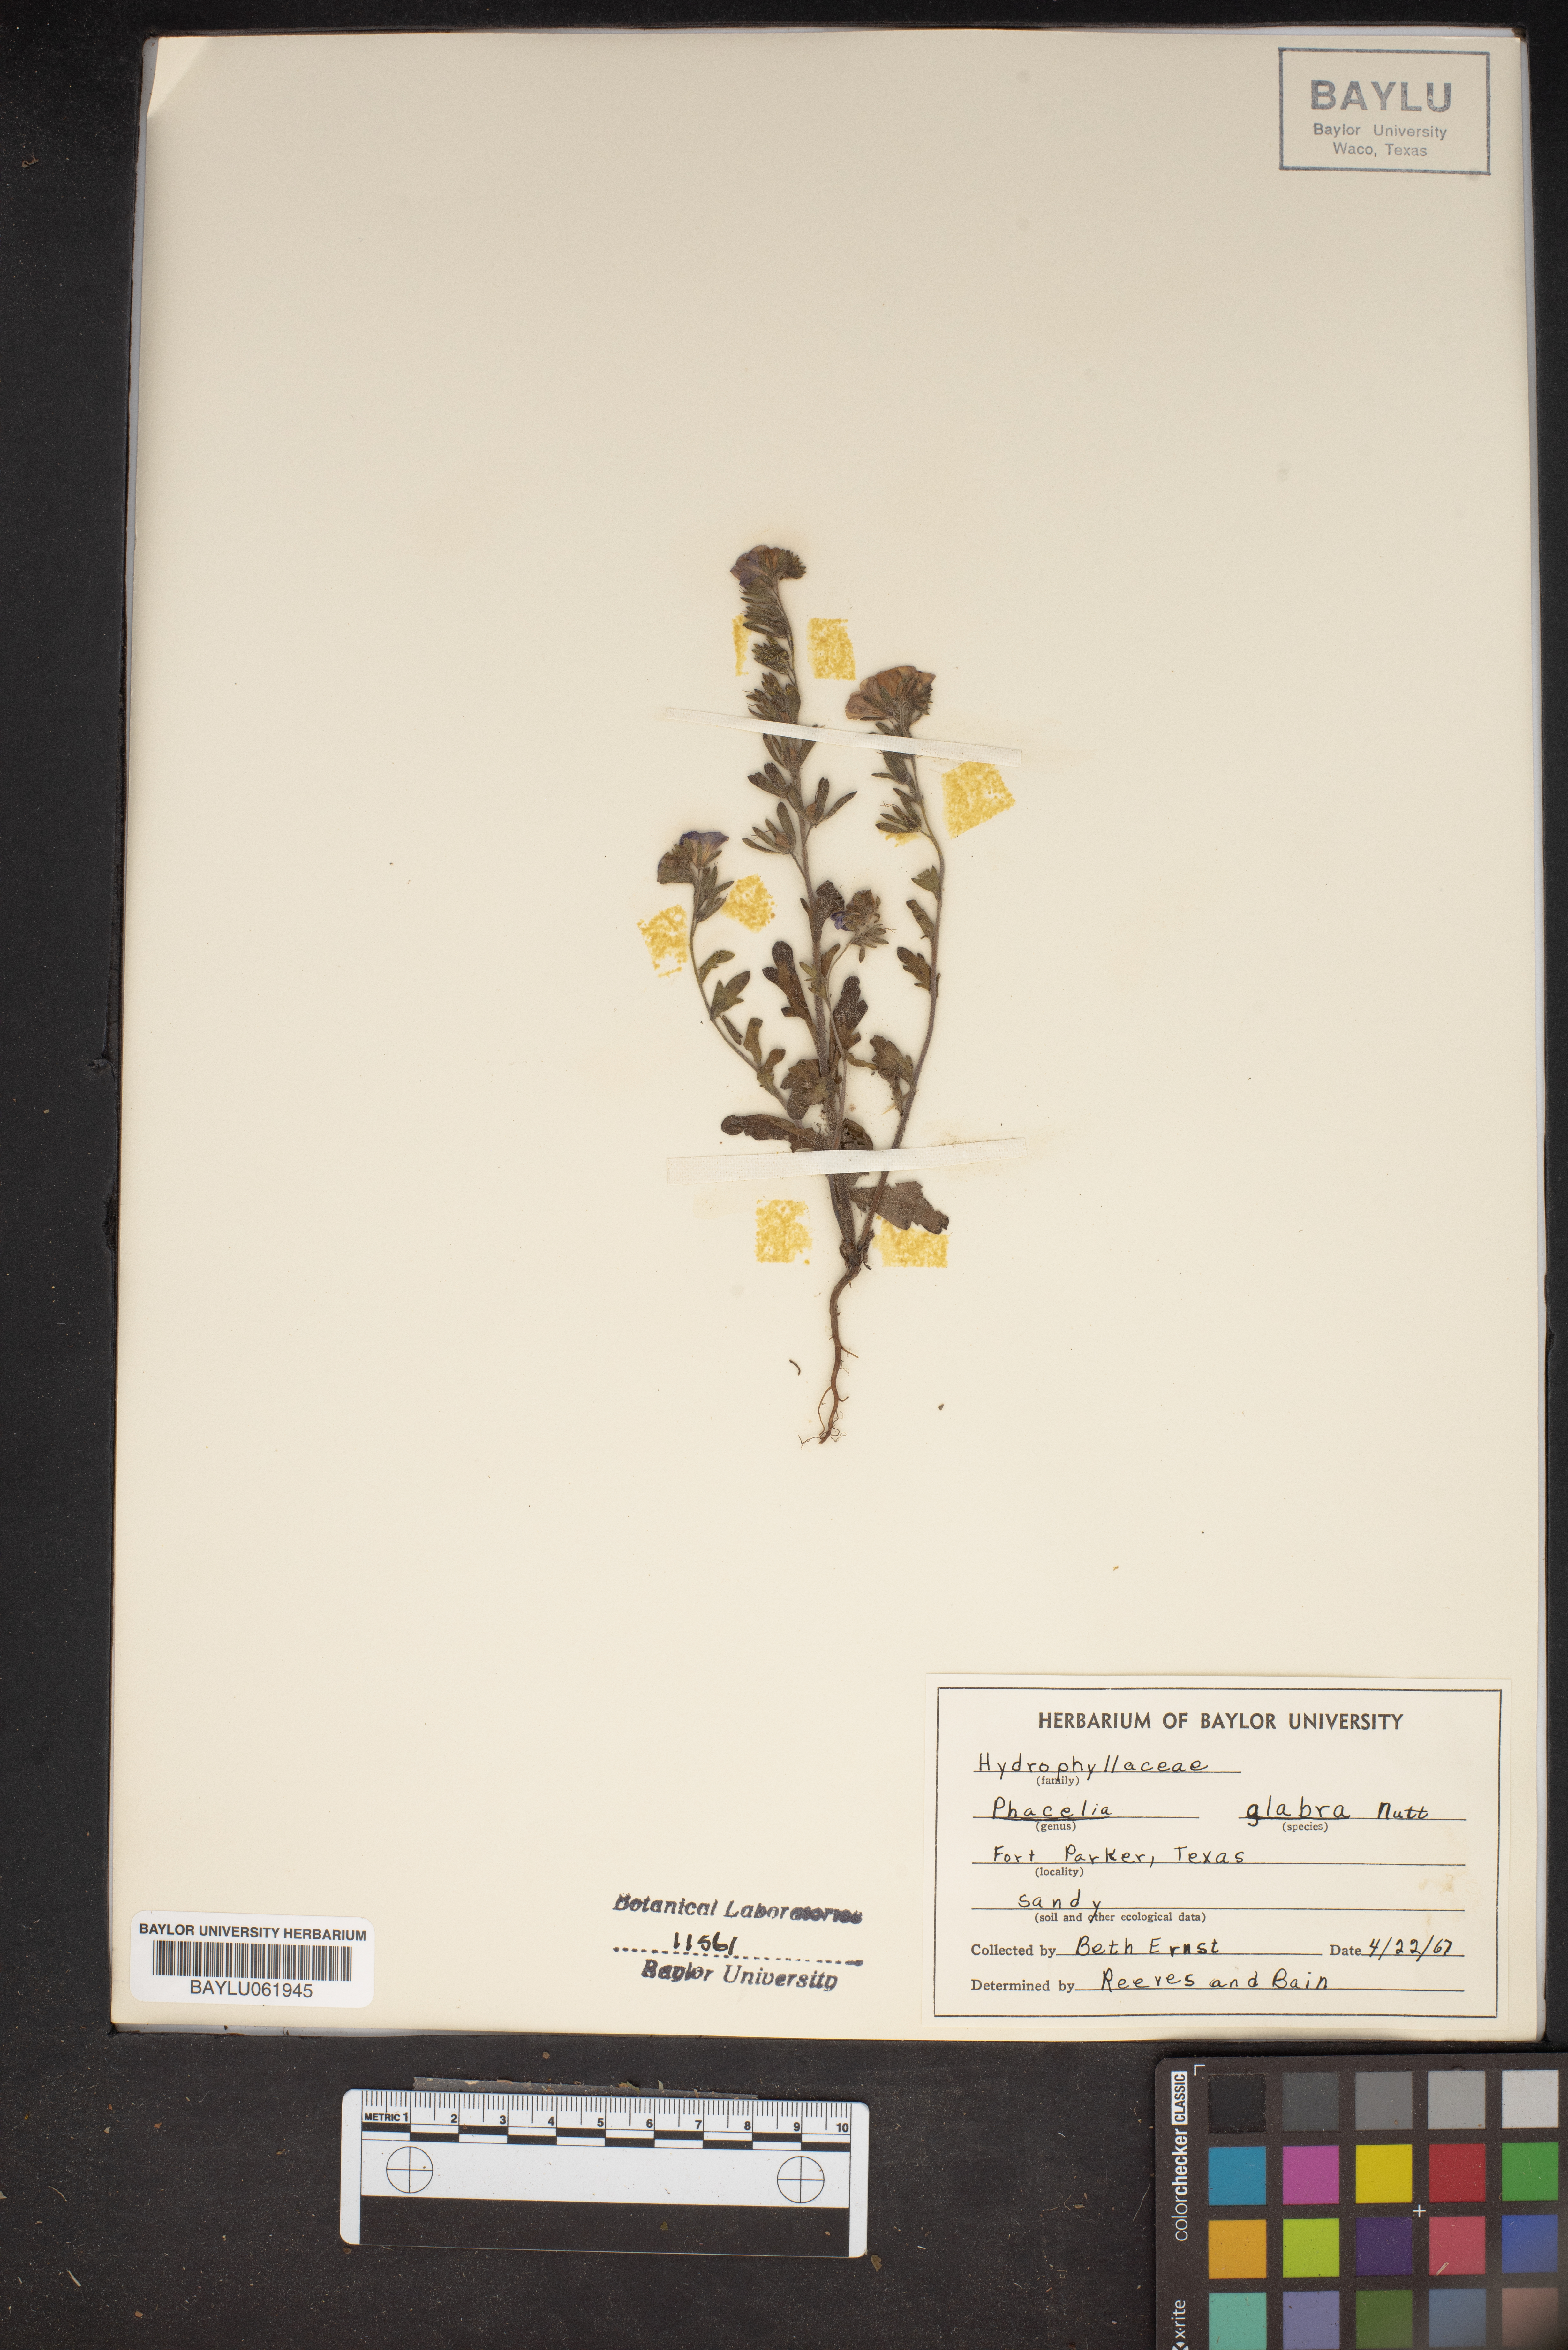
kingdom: Plantae
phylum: Tracheophyta
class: Magnoliopsida
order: Boraginales
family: Hydrophyllaceae
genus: Phacelia
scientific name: Phacelia glabra
